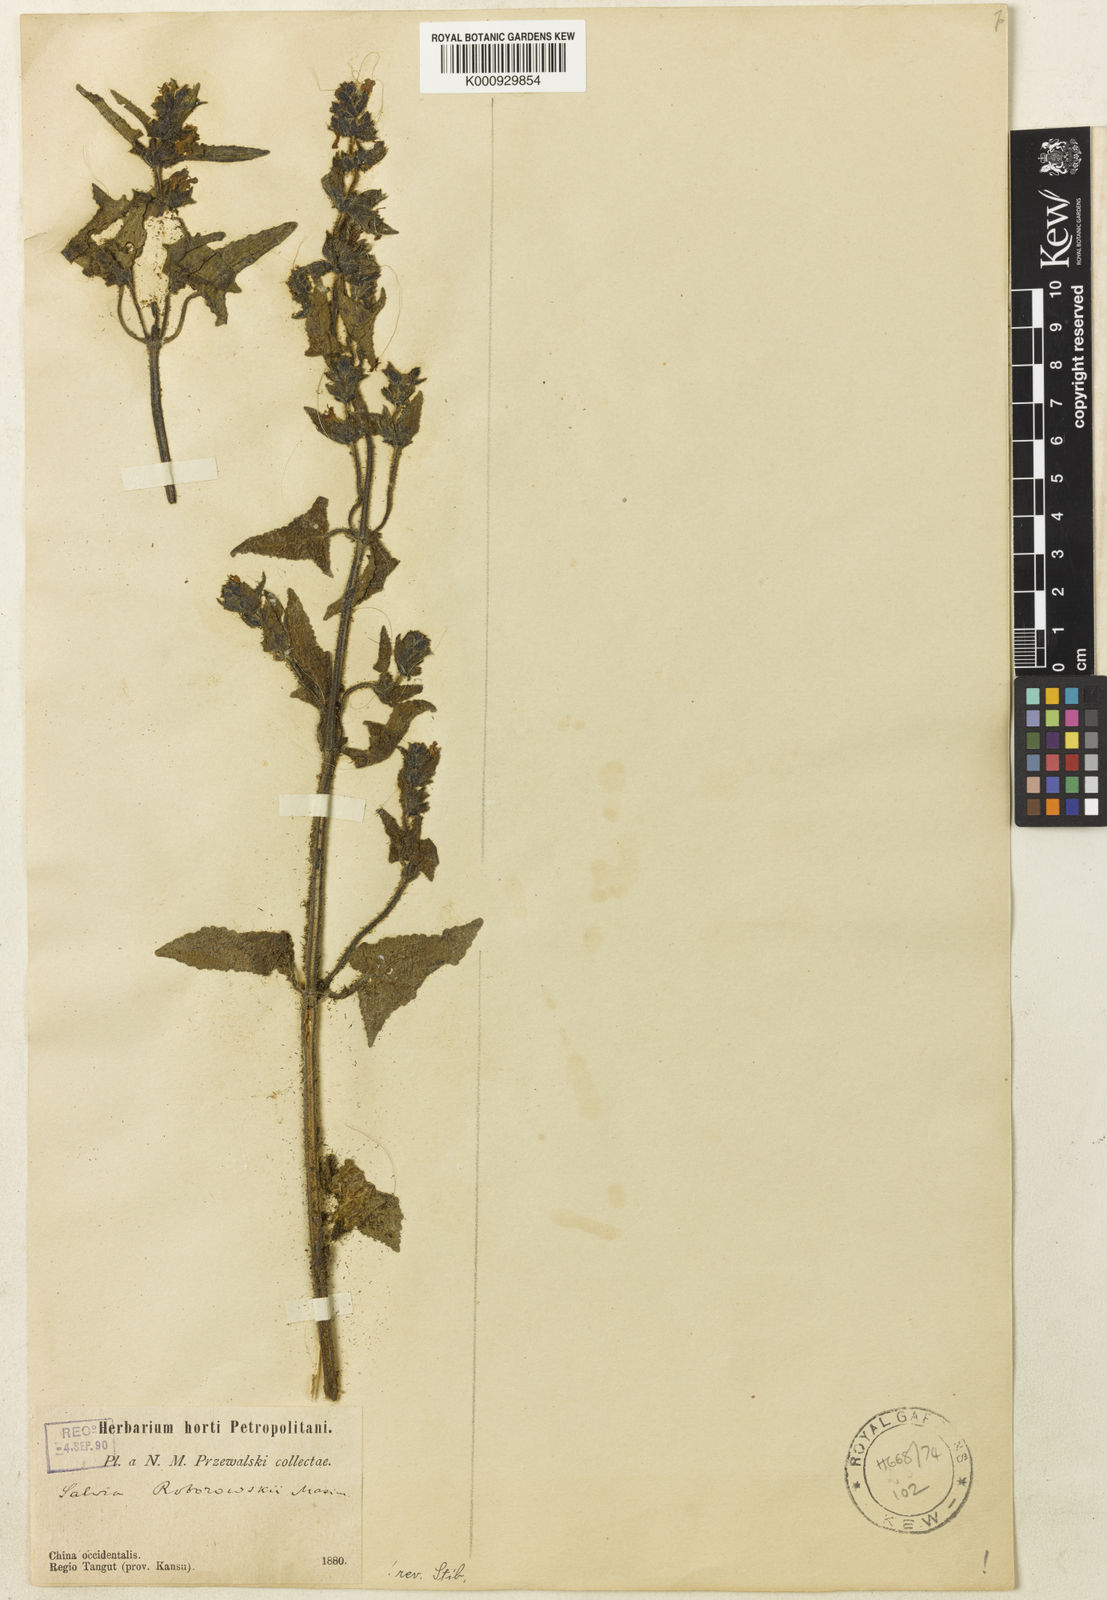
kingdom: Plantae
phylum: Tracheophyta
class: Magnoliopsida
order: Lamiales
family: Lamiaceae
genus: Salvia
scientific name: Salvia roborowskii
